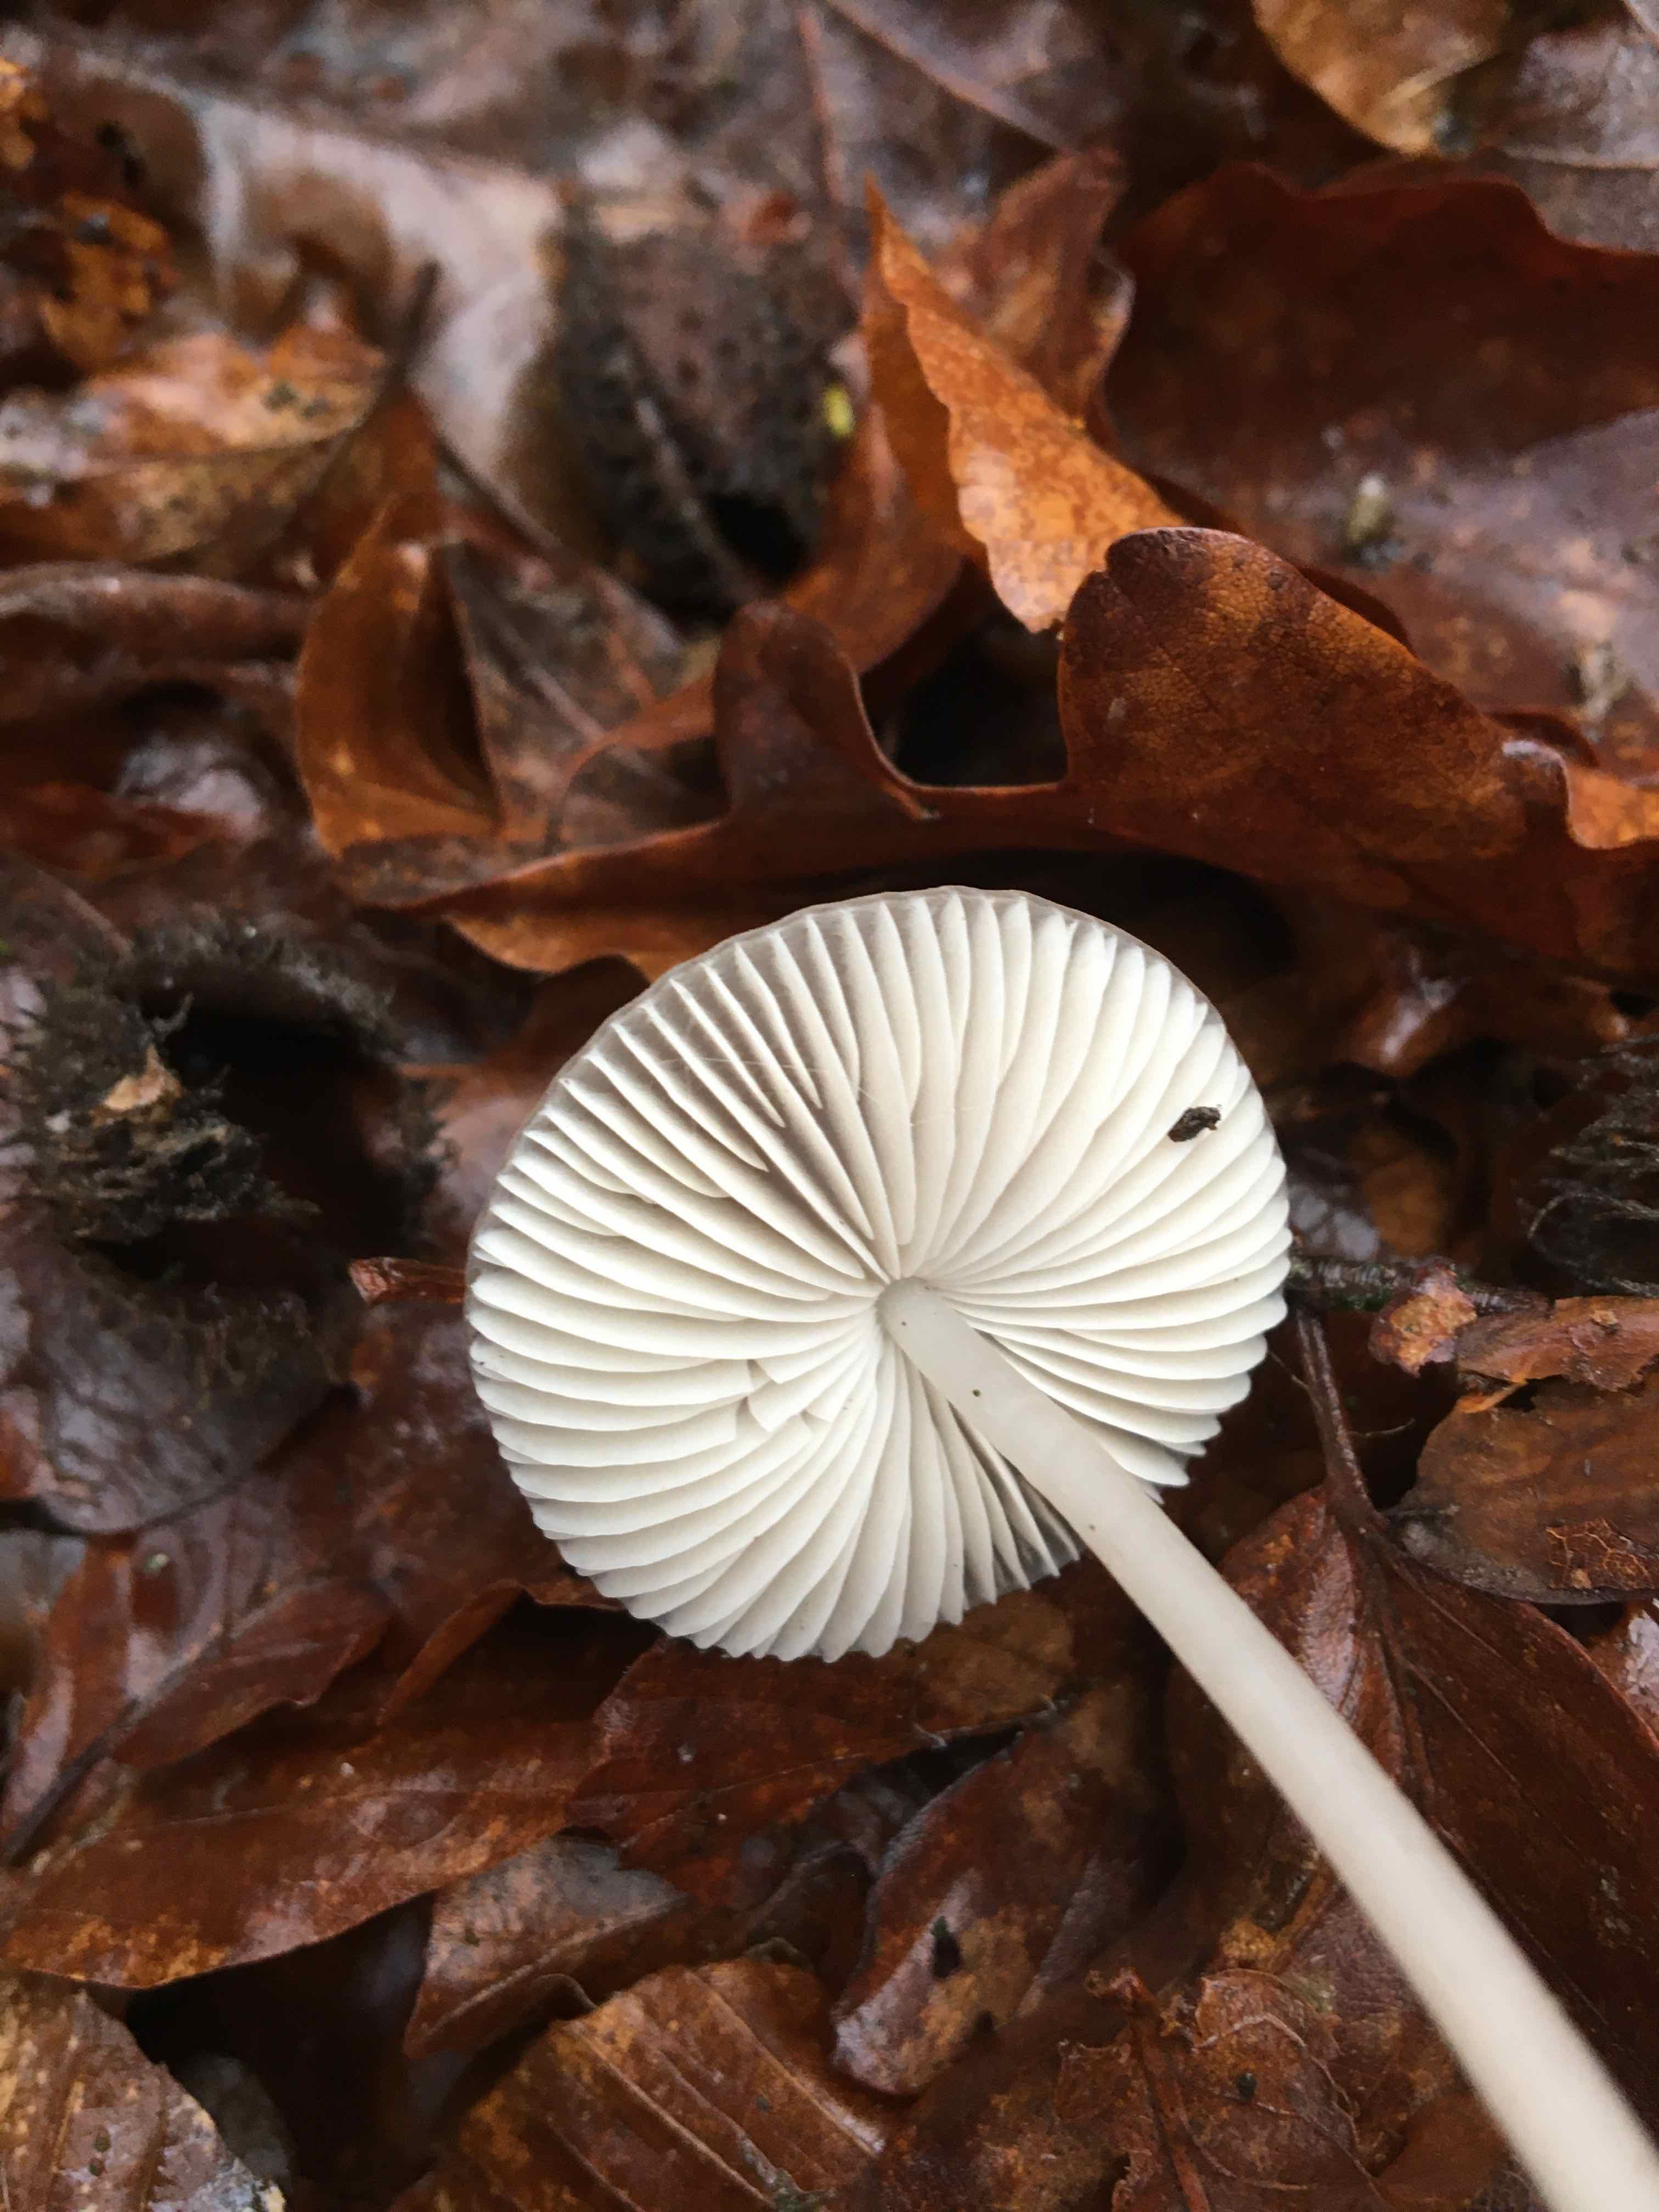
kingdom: Fungi
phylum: Basidiomycota
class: Agaricomycetes
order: Agaricales
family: Mycenaceae
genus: Mycena
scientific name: Mycena vitilis
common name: blankstokket huesvamp
